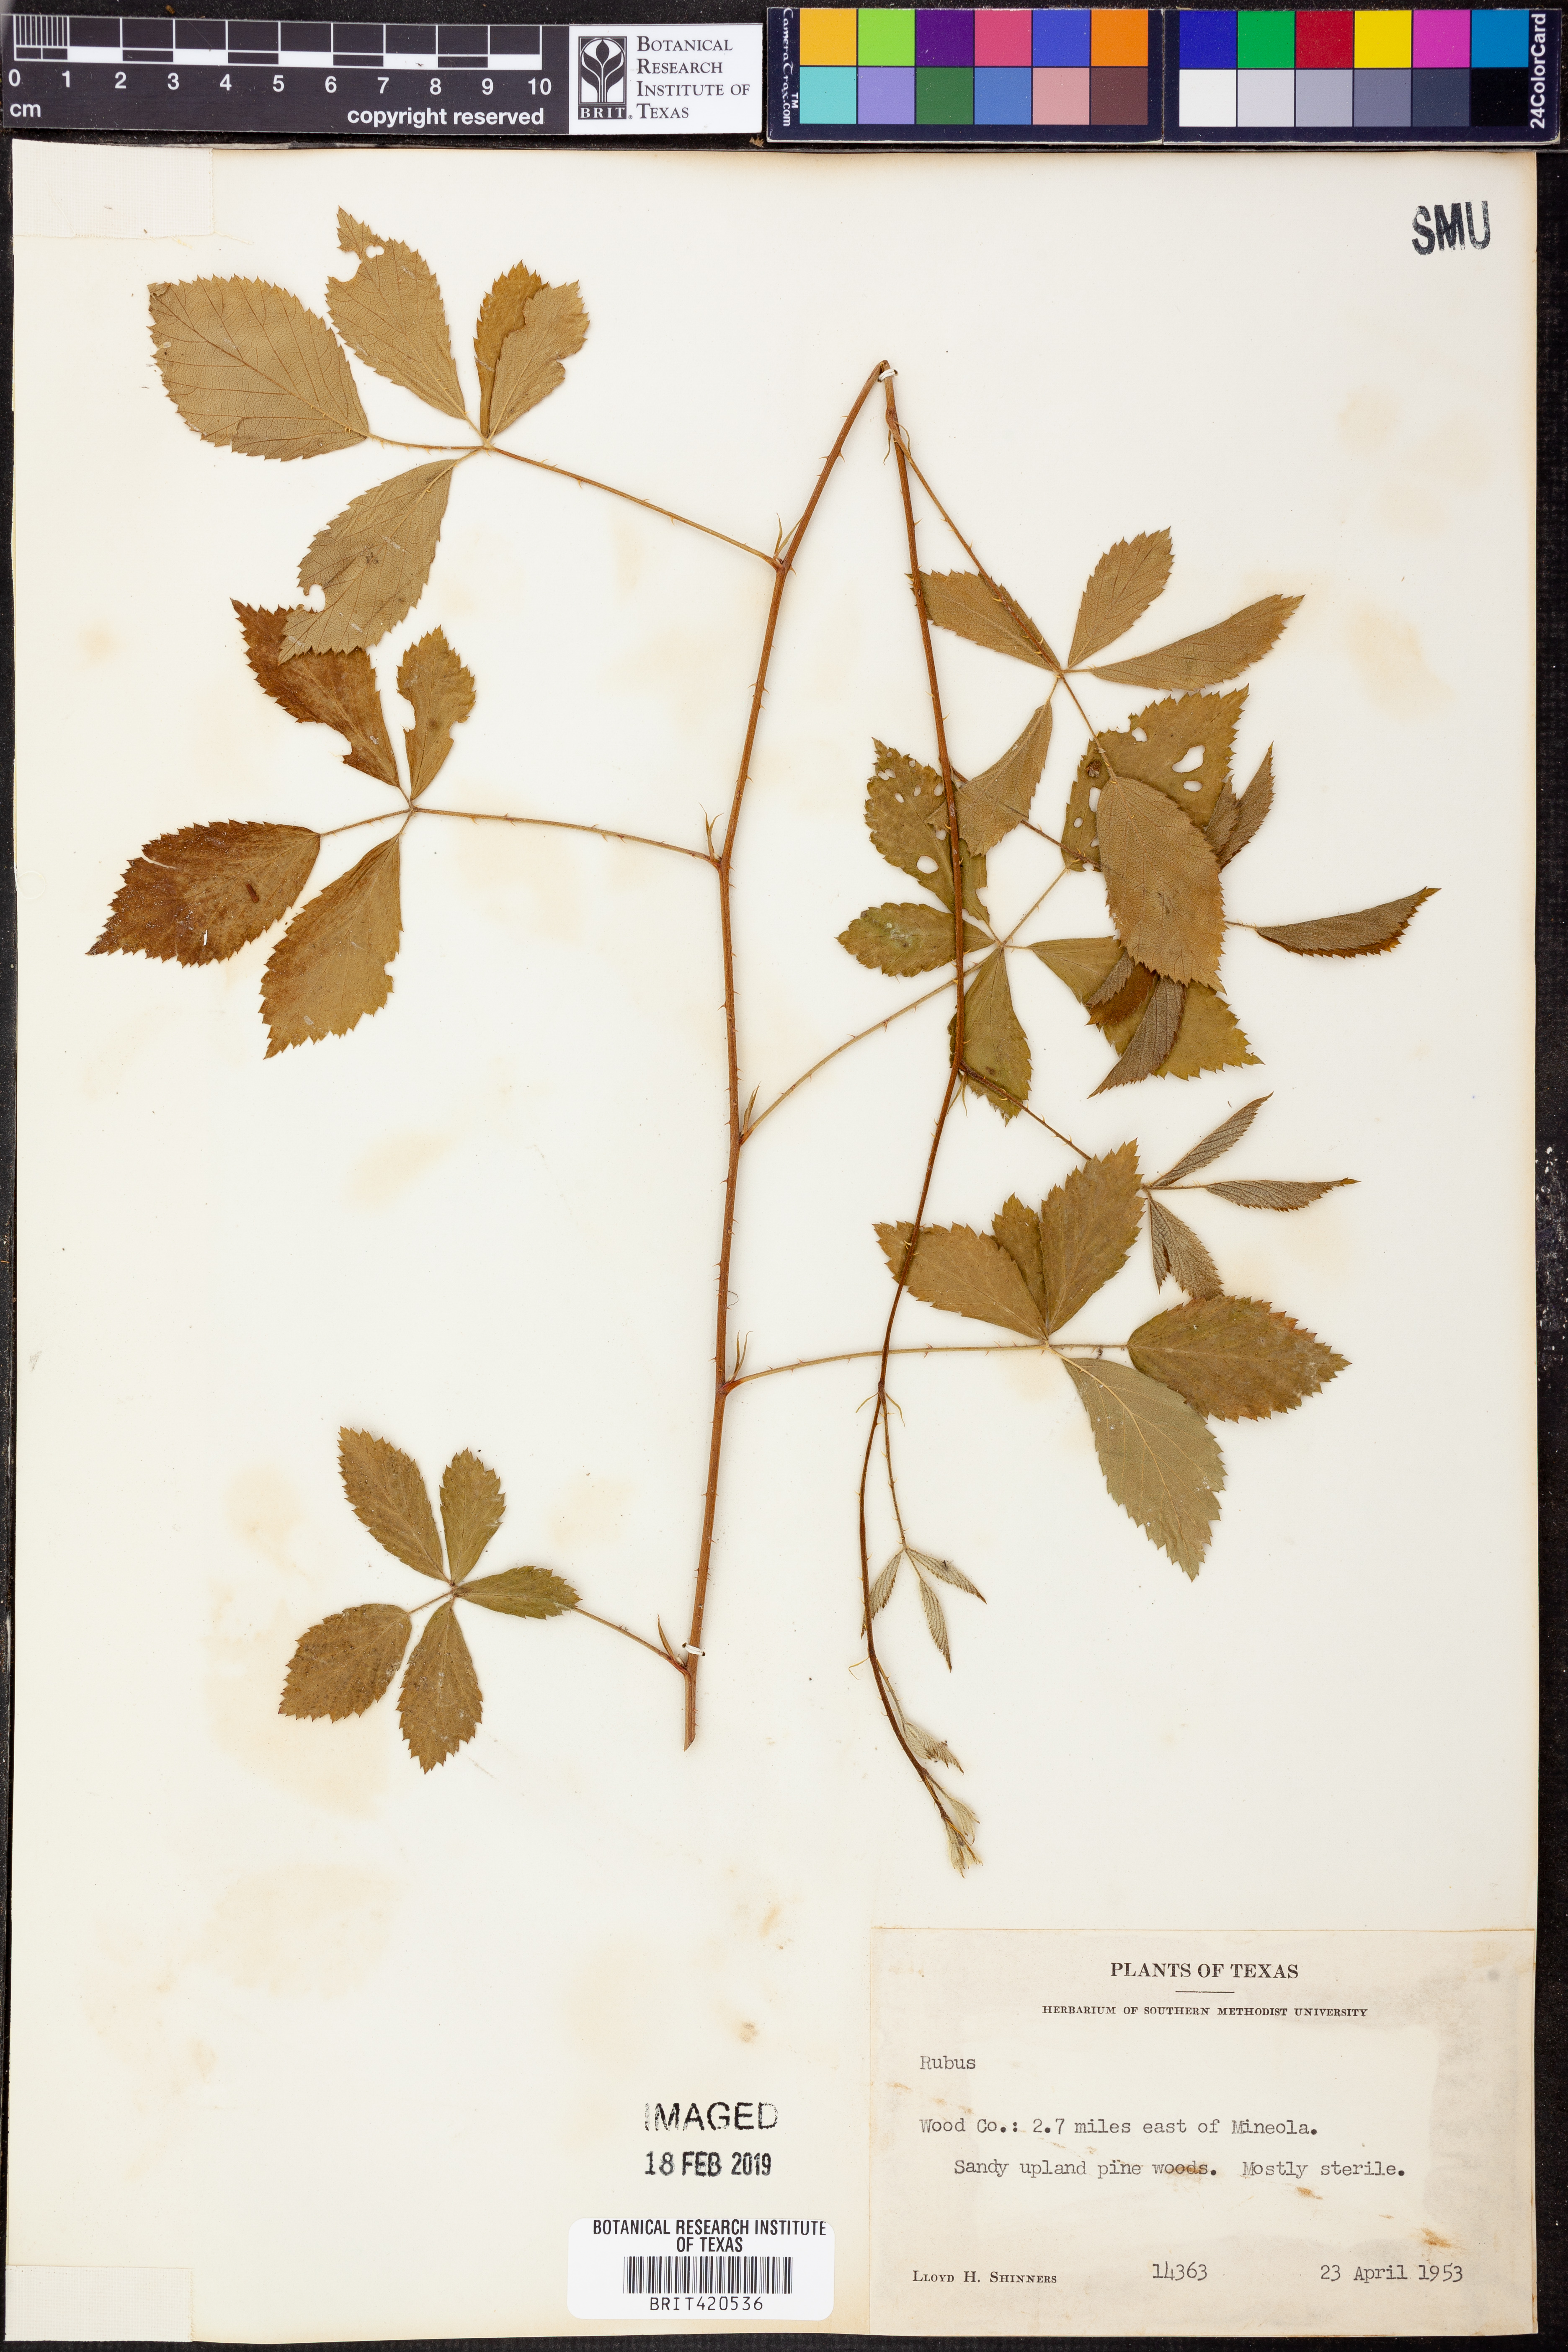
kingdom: Plantae
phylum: Tracheophyta
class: Magnoliopsida
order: Rosales
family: Rosaceae
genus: Rubus
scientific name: Rubus
